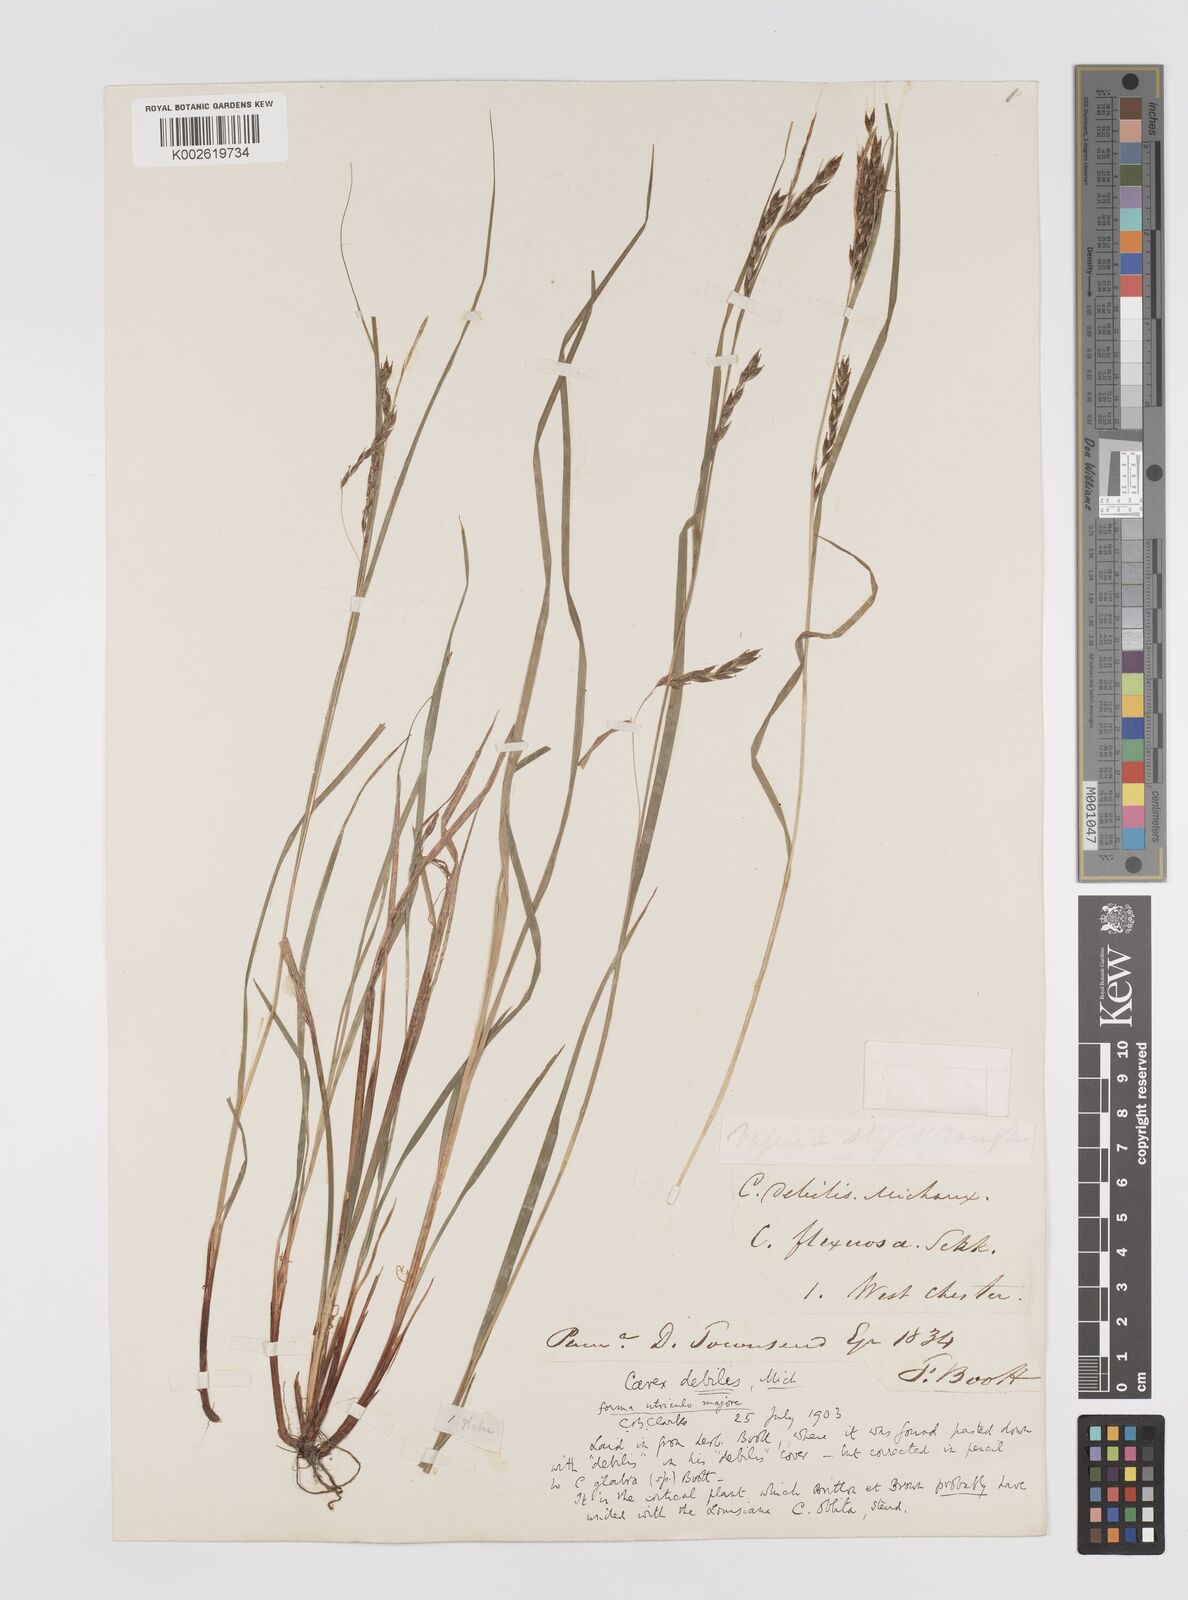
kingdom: Plantae
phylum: Tracheophyta
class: Liliopsida
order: Poales
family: Cyperaceae
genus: Carex
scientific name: Carex venusta
